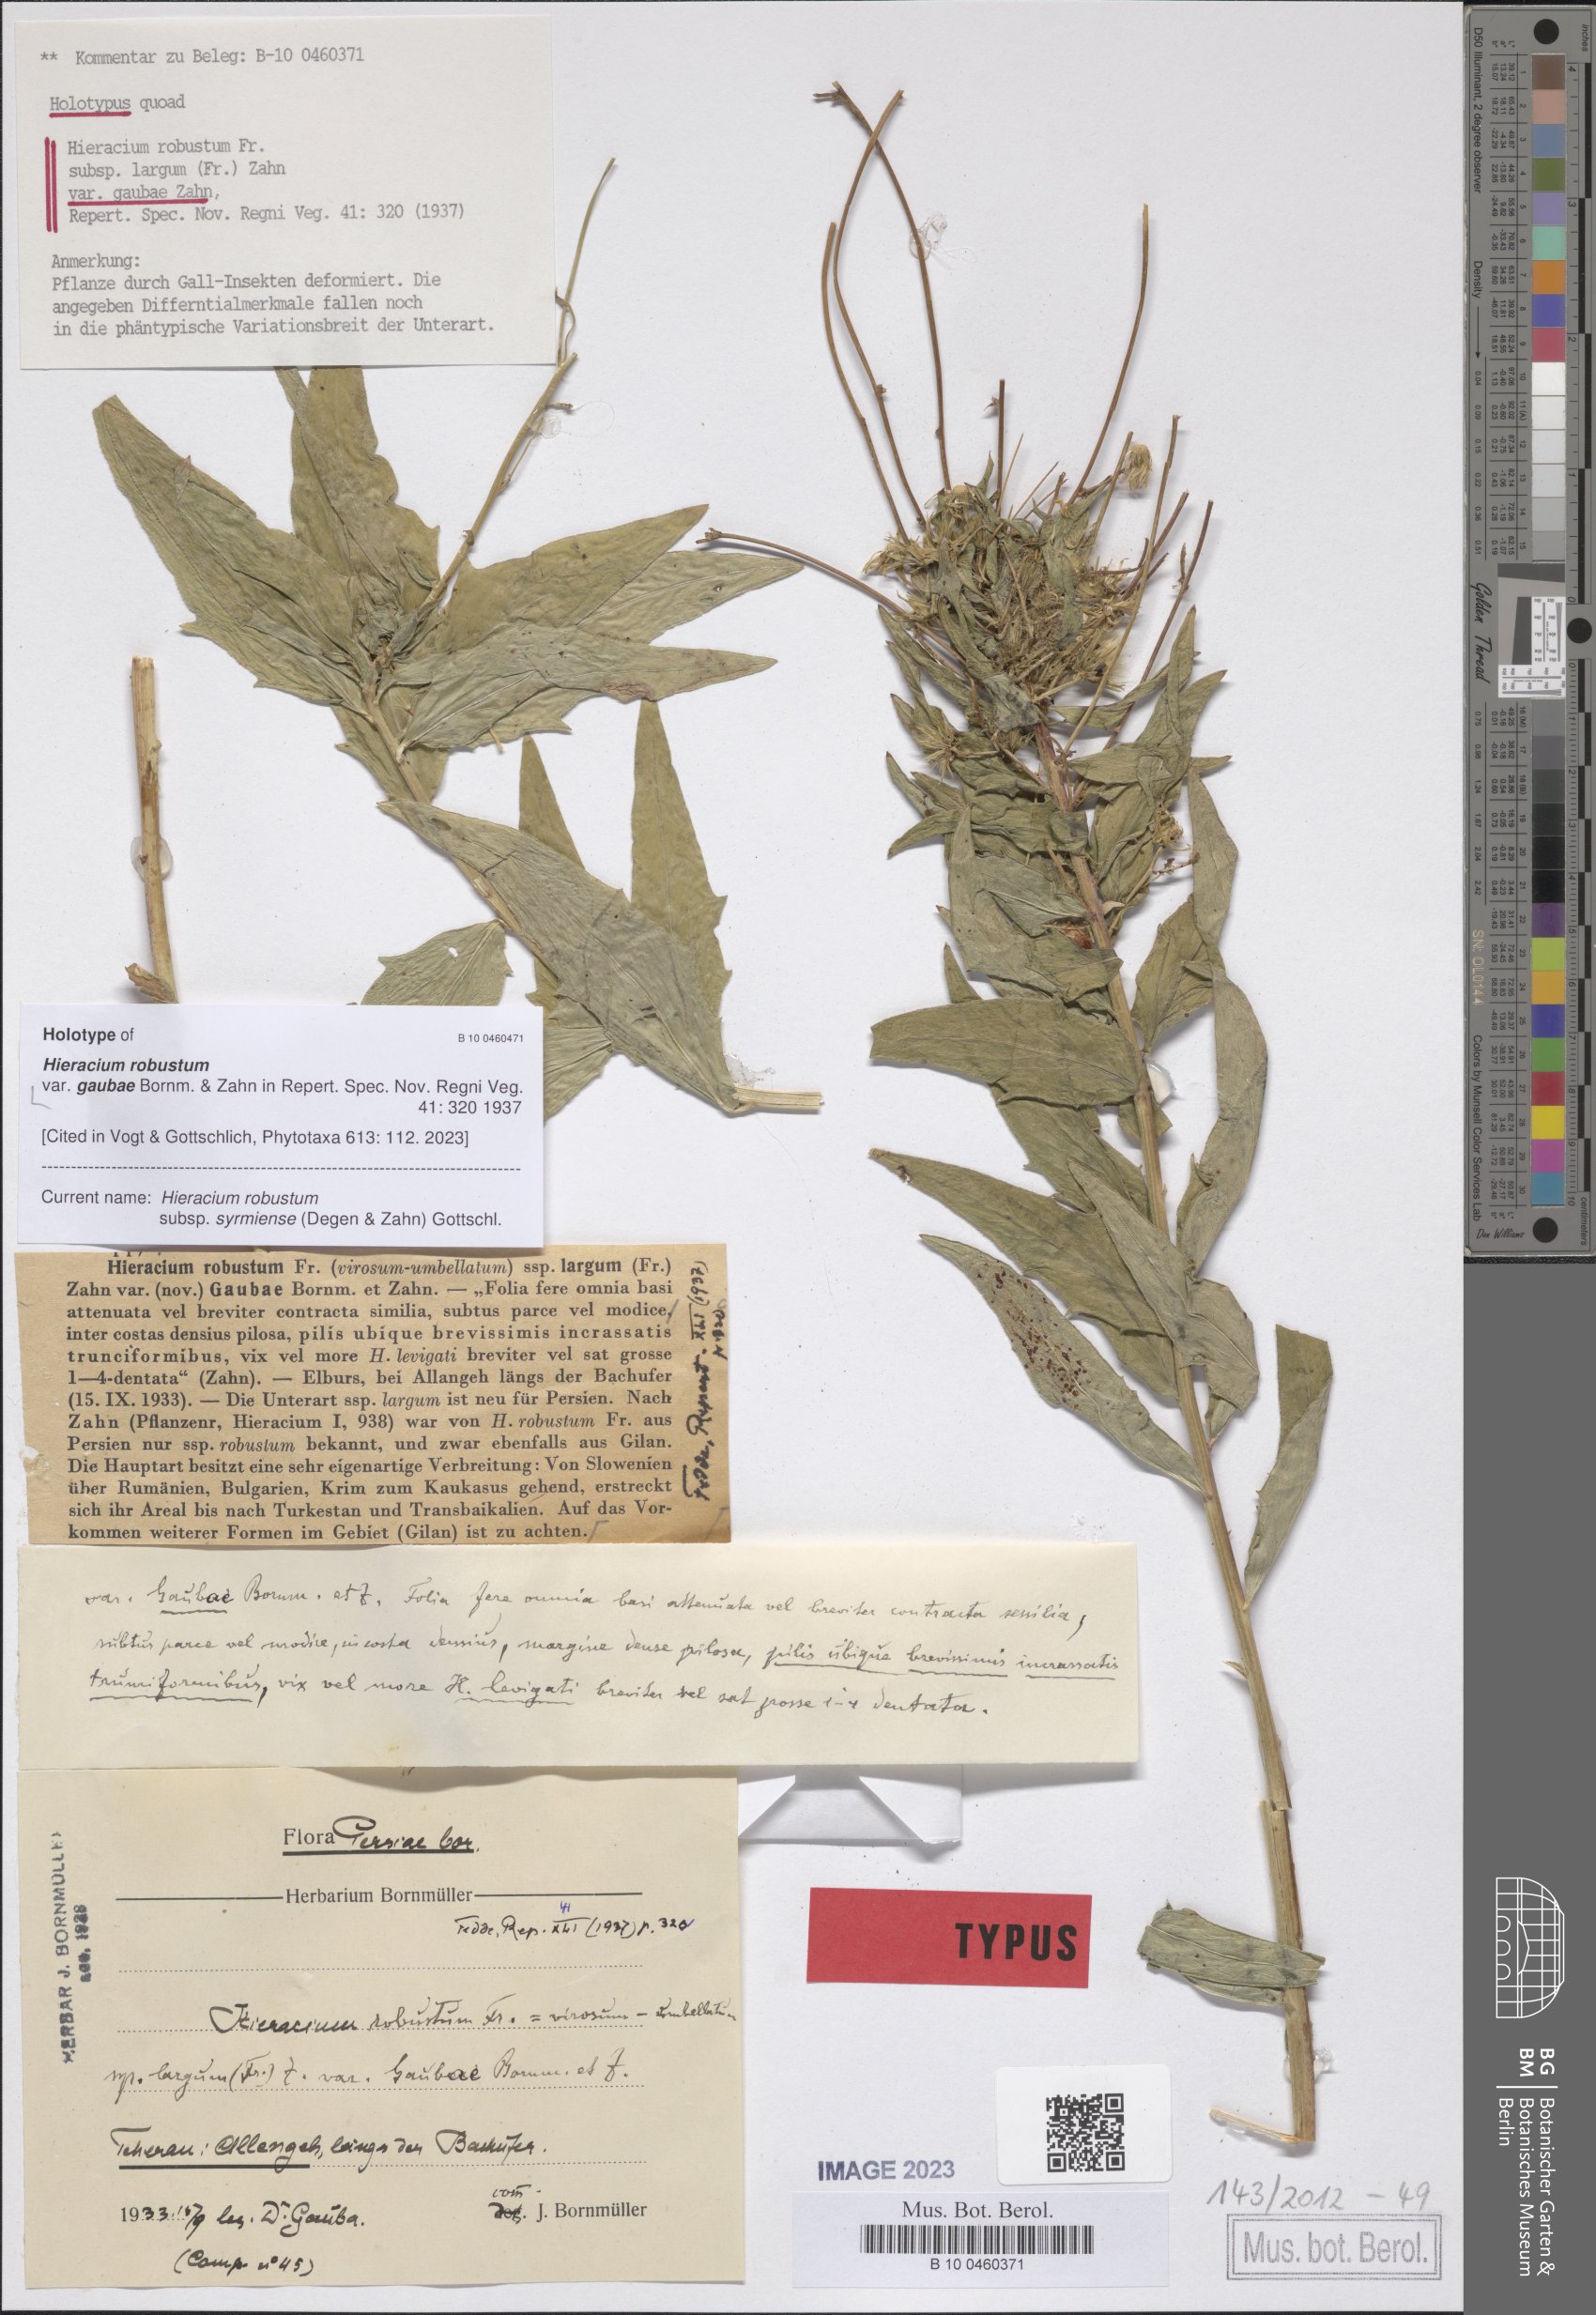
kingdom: Plantae
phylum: Tracheophyta
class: Magnoliopsida
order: Asterales
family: Asteraceae
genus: Hieracium
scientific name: Hieracium robustum
